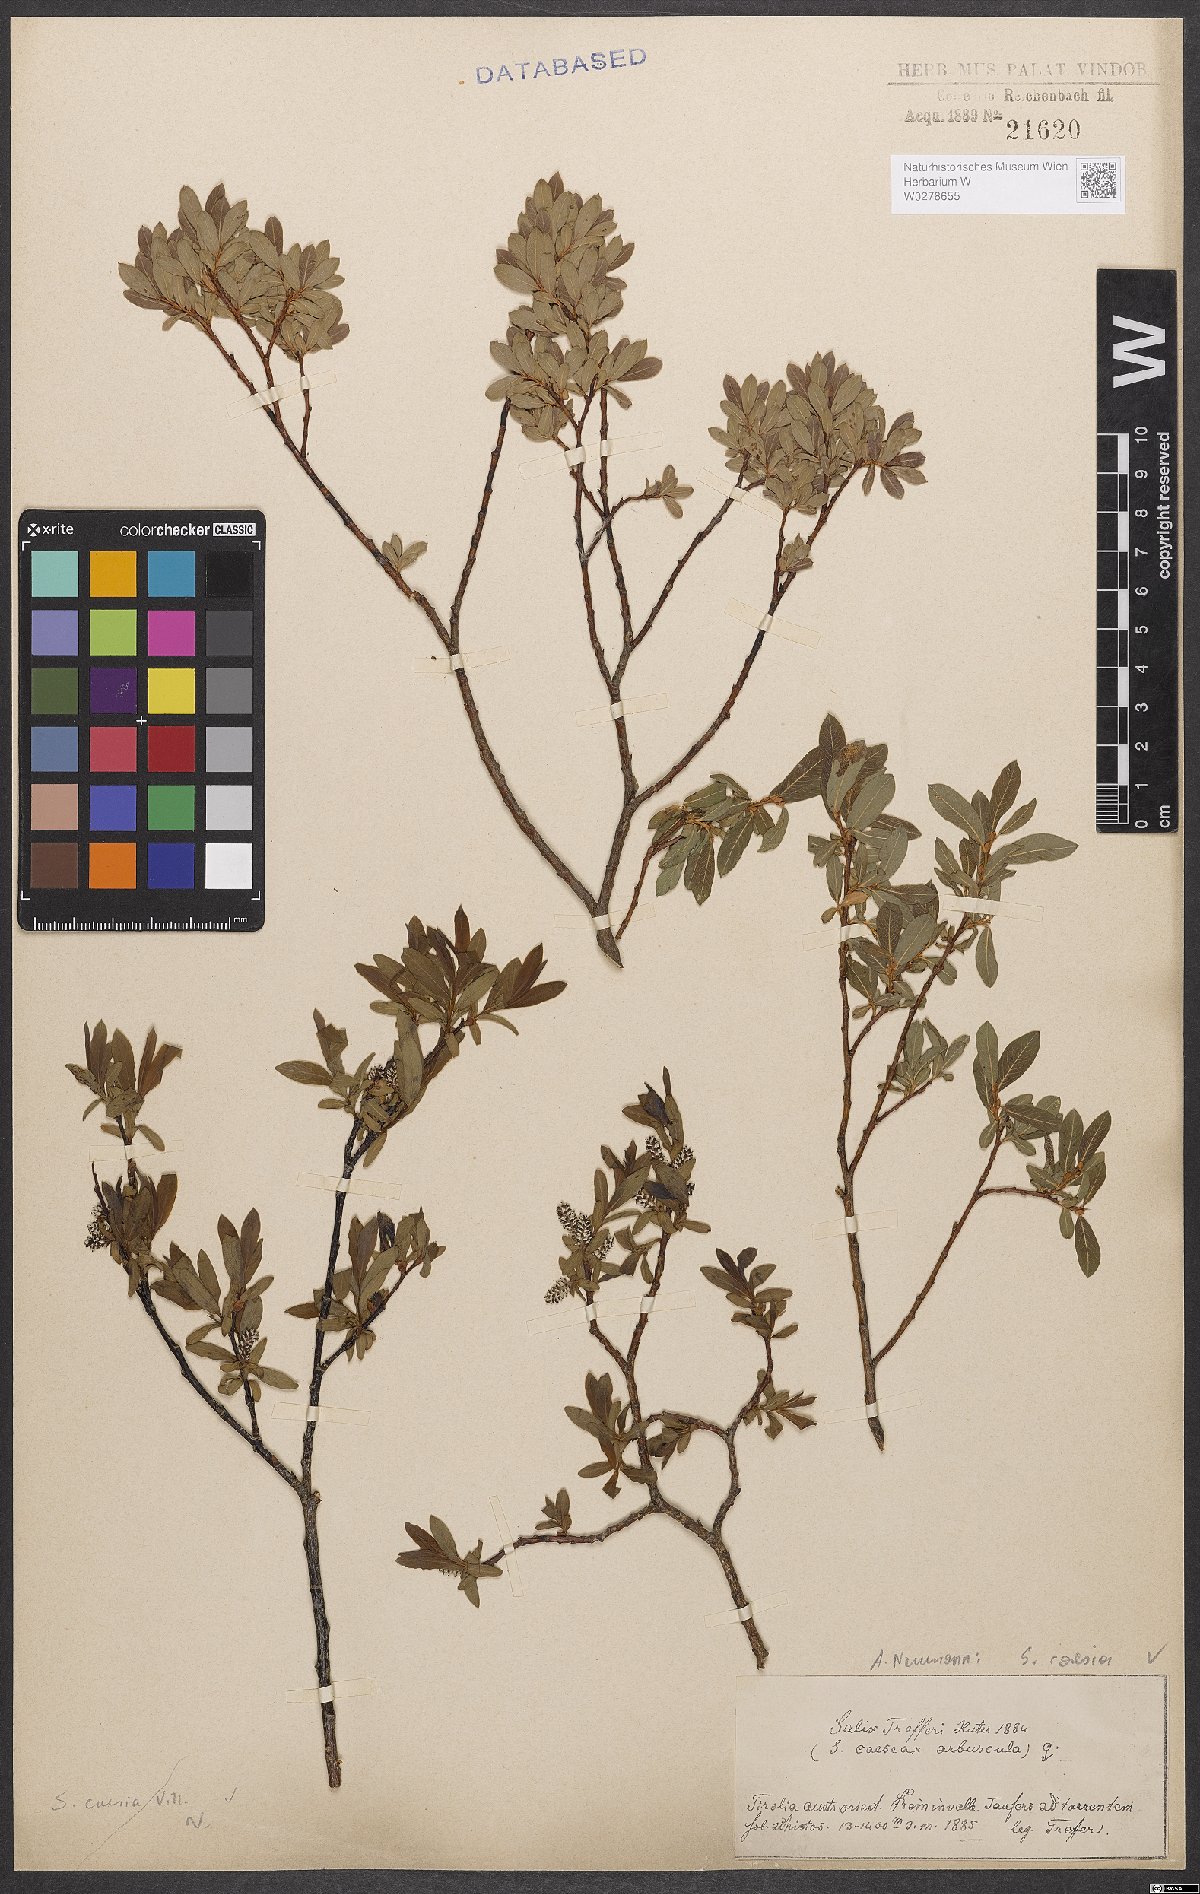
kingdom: Plantae
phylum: Tracheophyta
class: Magnoliopsida
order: Malpighiales
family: Salicaceae
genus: Salix
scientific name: Salix caesia
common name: Blue willow
